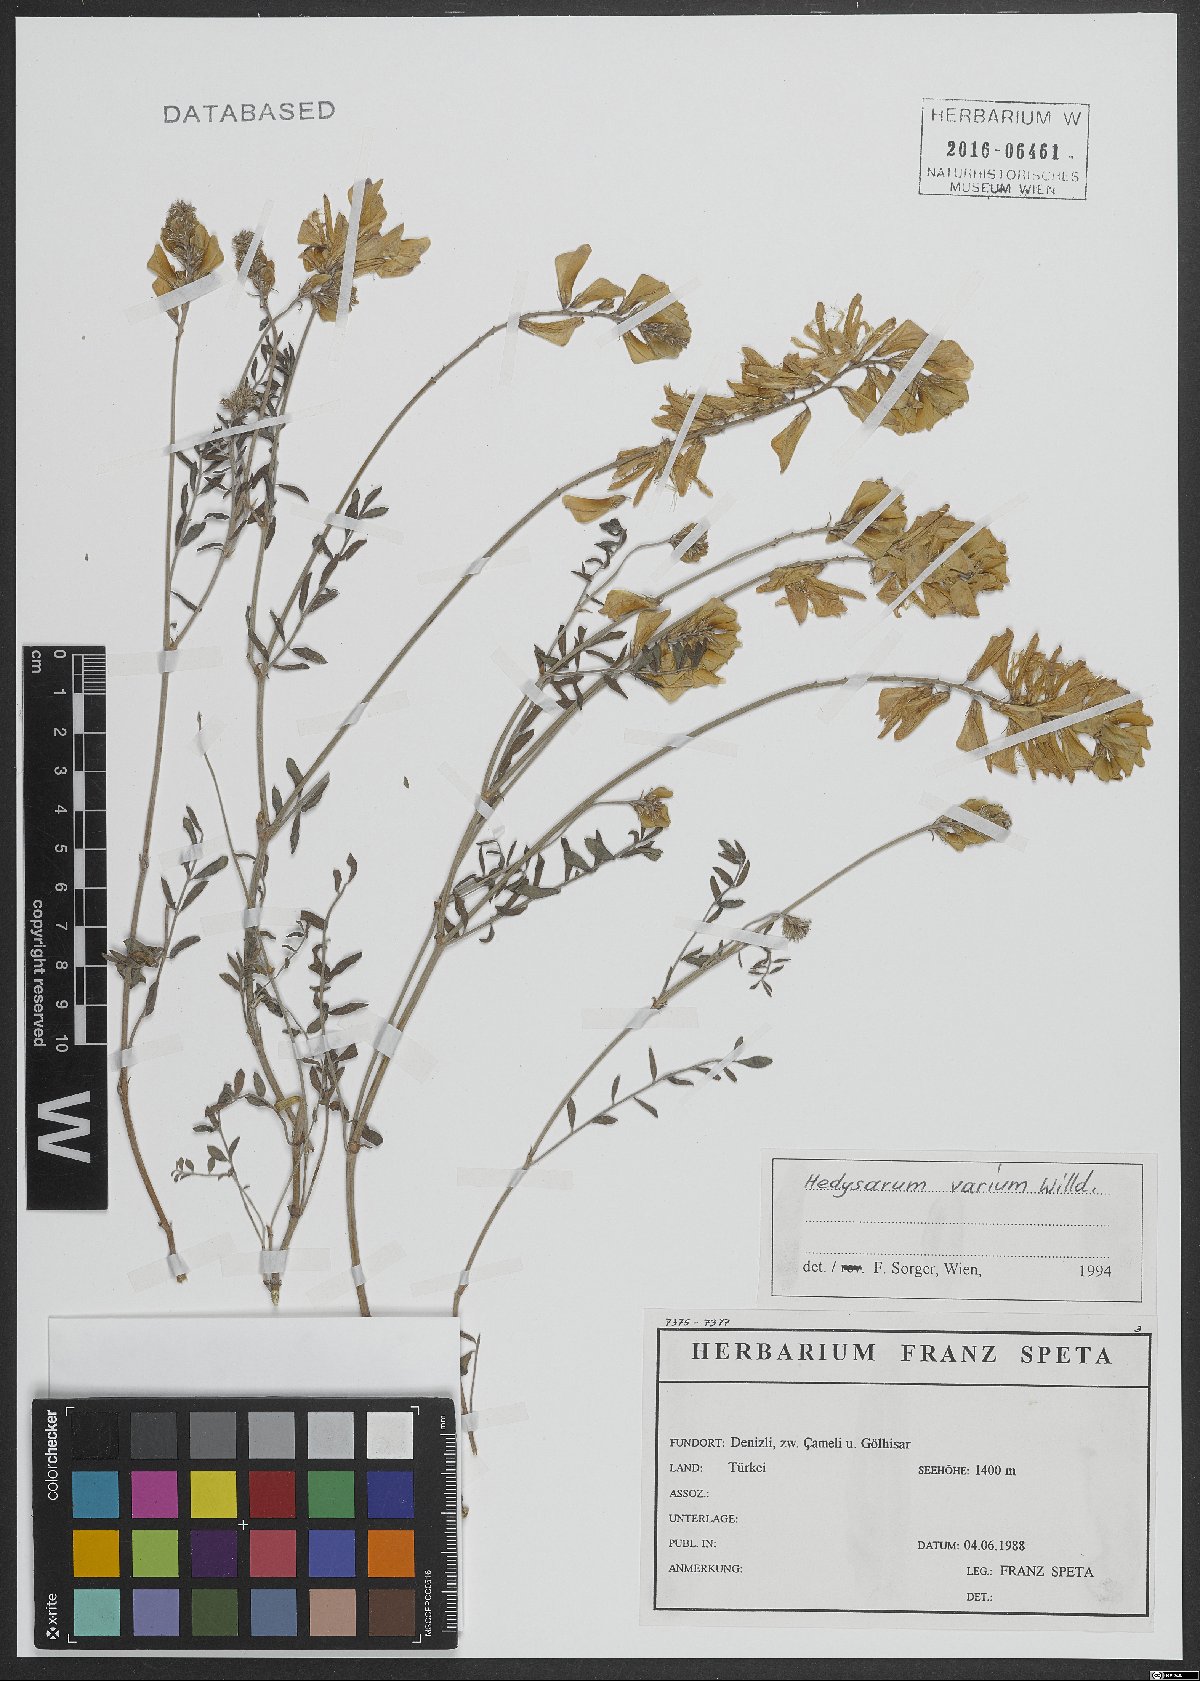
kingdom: Plantae
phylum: Tracheophyta
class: Magnoliopsida
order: Fabales
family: Fabaceae
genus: Hedysarum
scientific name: Hedysarum varium
